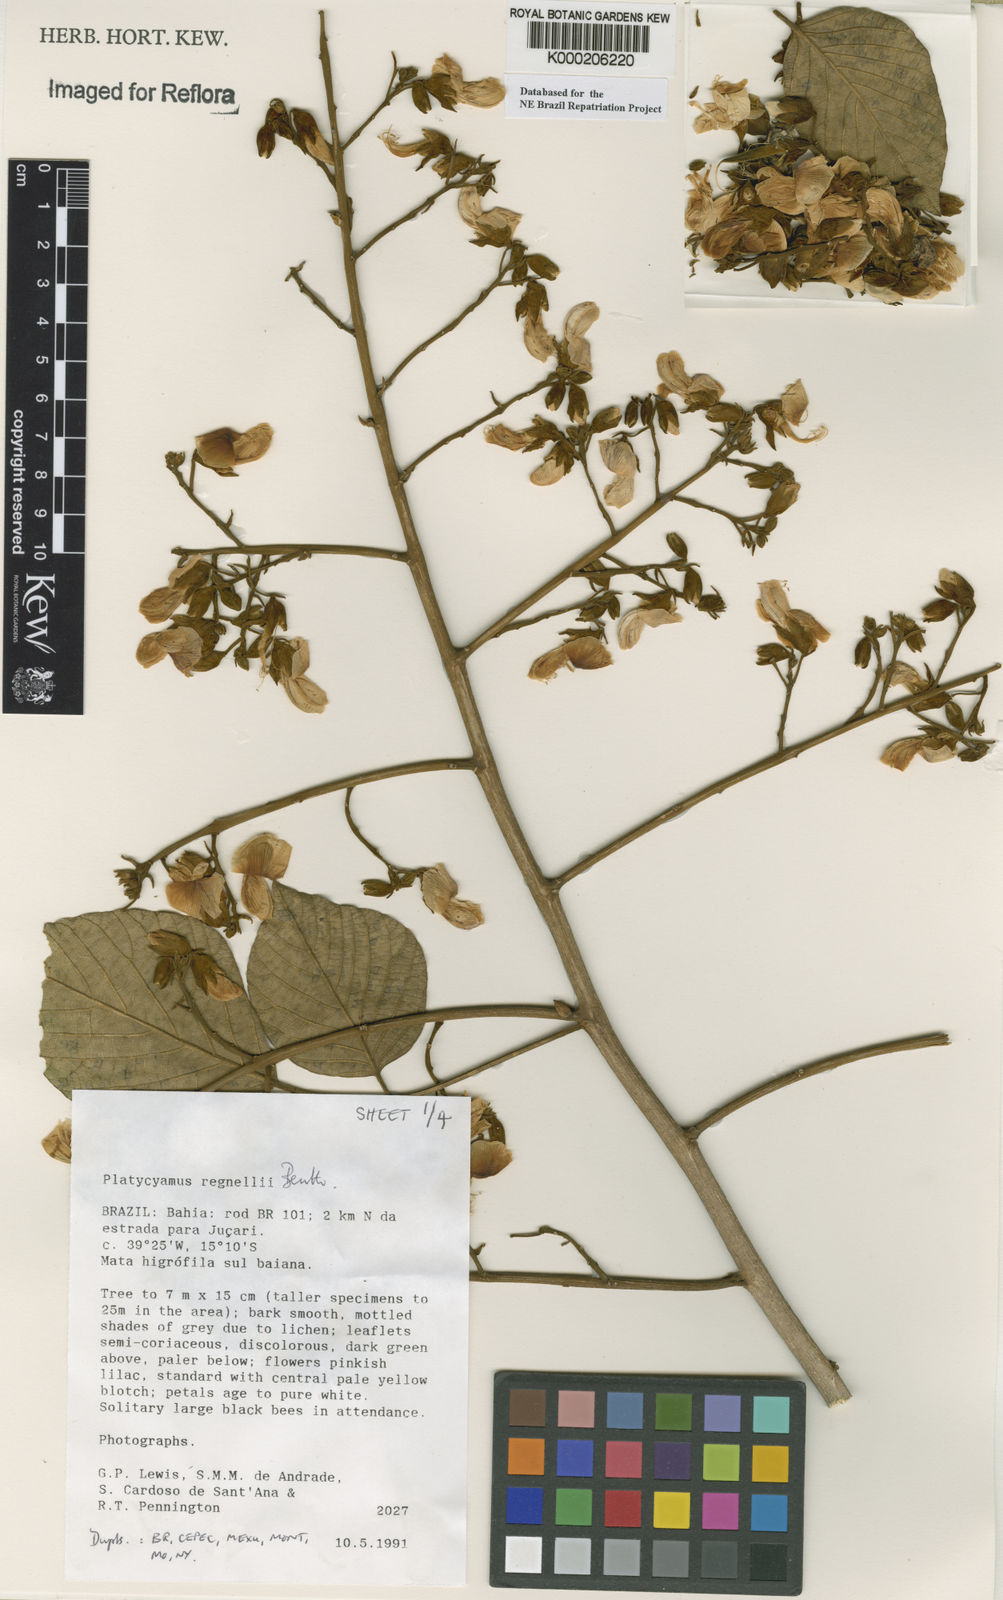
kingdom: Plantae
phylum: Tracheophyta
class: Magnoliopsida
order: Fabales
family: Fabaceae
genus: Platycyamus
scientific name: Platycyamus regnellii
